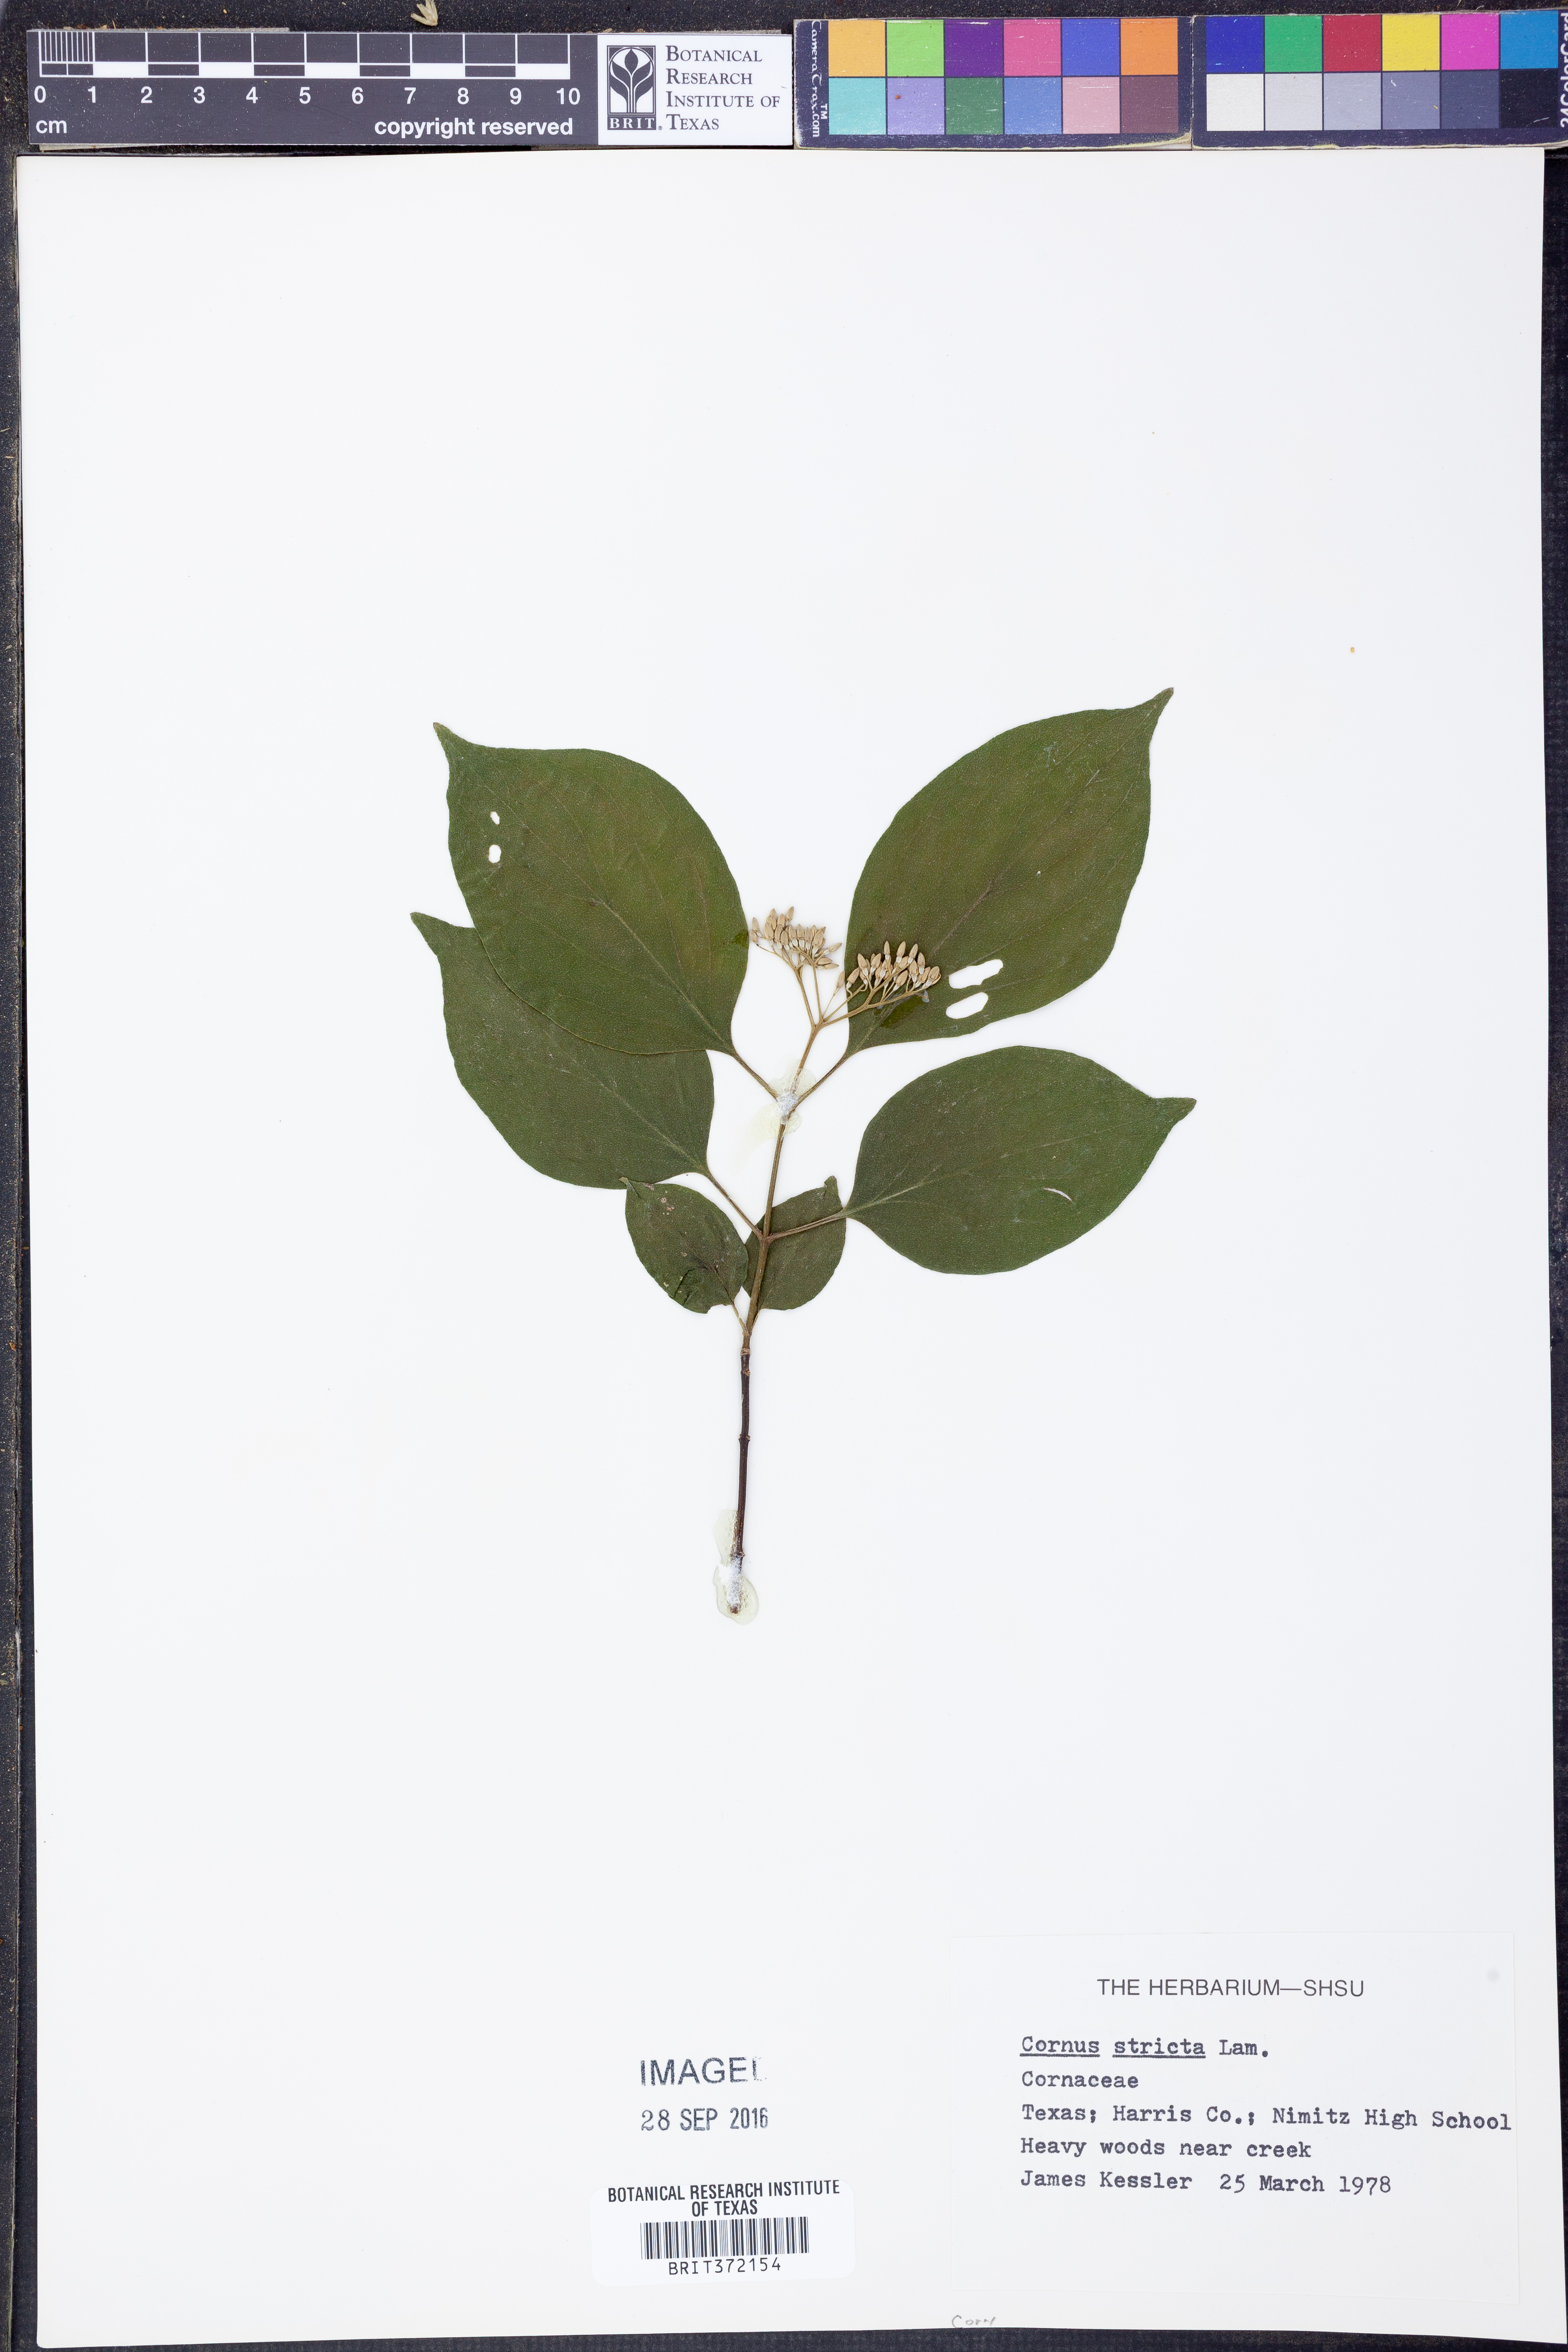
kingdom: Plantae
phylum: Tracheophyta
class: Magnoliopsida
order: Cornales
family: Cornaceae
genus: Cornus
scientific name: Cornus foemina
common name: Swamp dogwood
